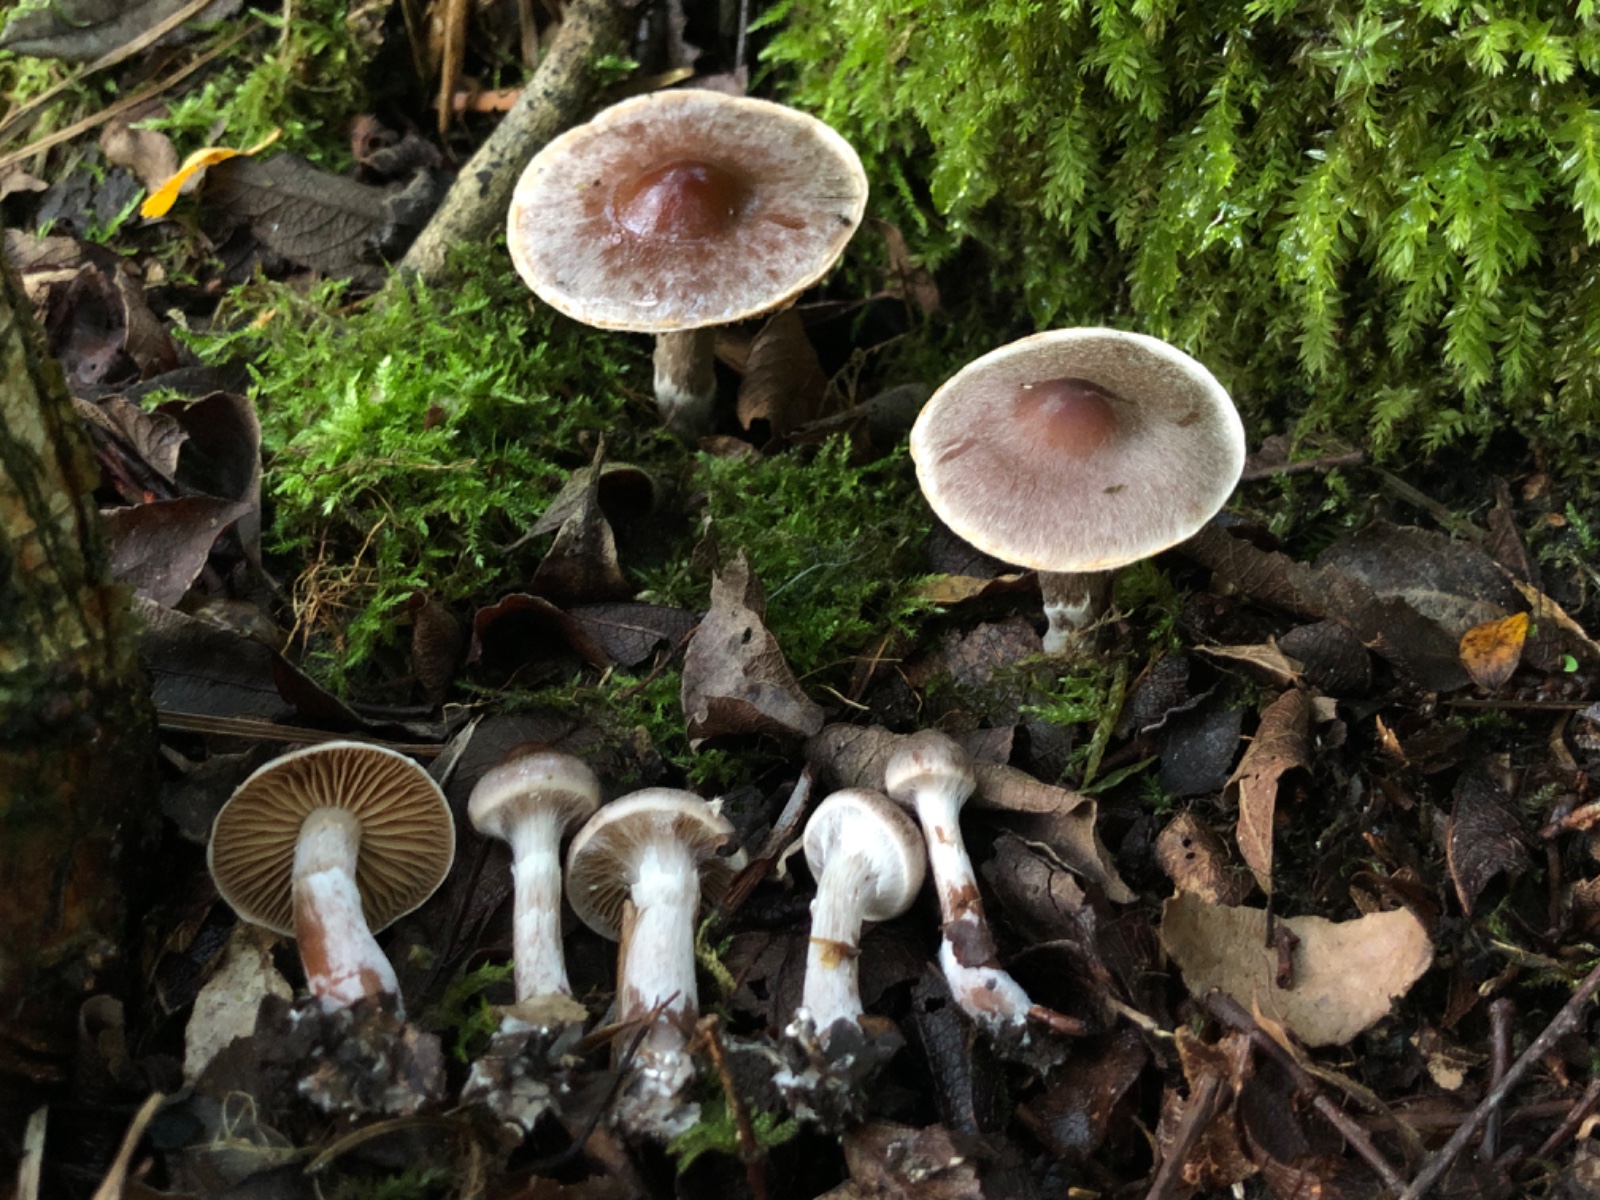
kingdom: Fungi
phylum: Basidiomycota
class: Agaricomycetes
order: Agaricales
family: Cortinariaceae
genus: Cortinarius
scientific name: Cortinarius
